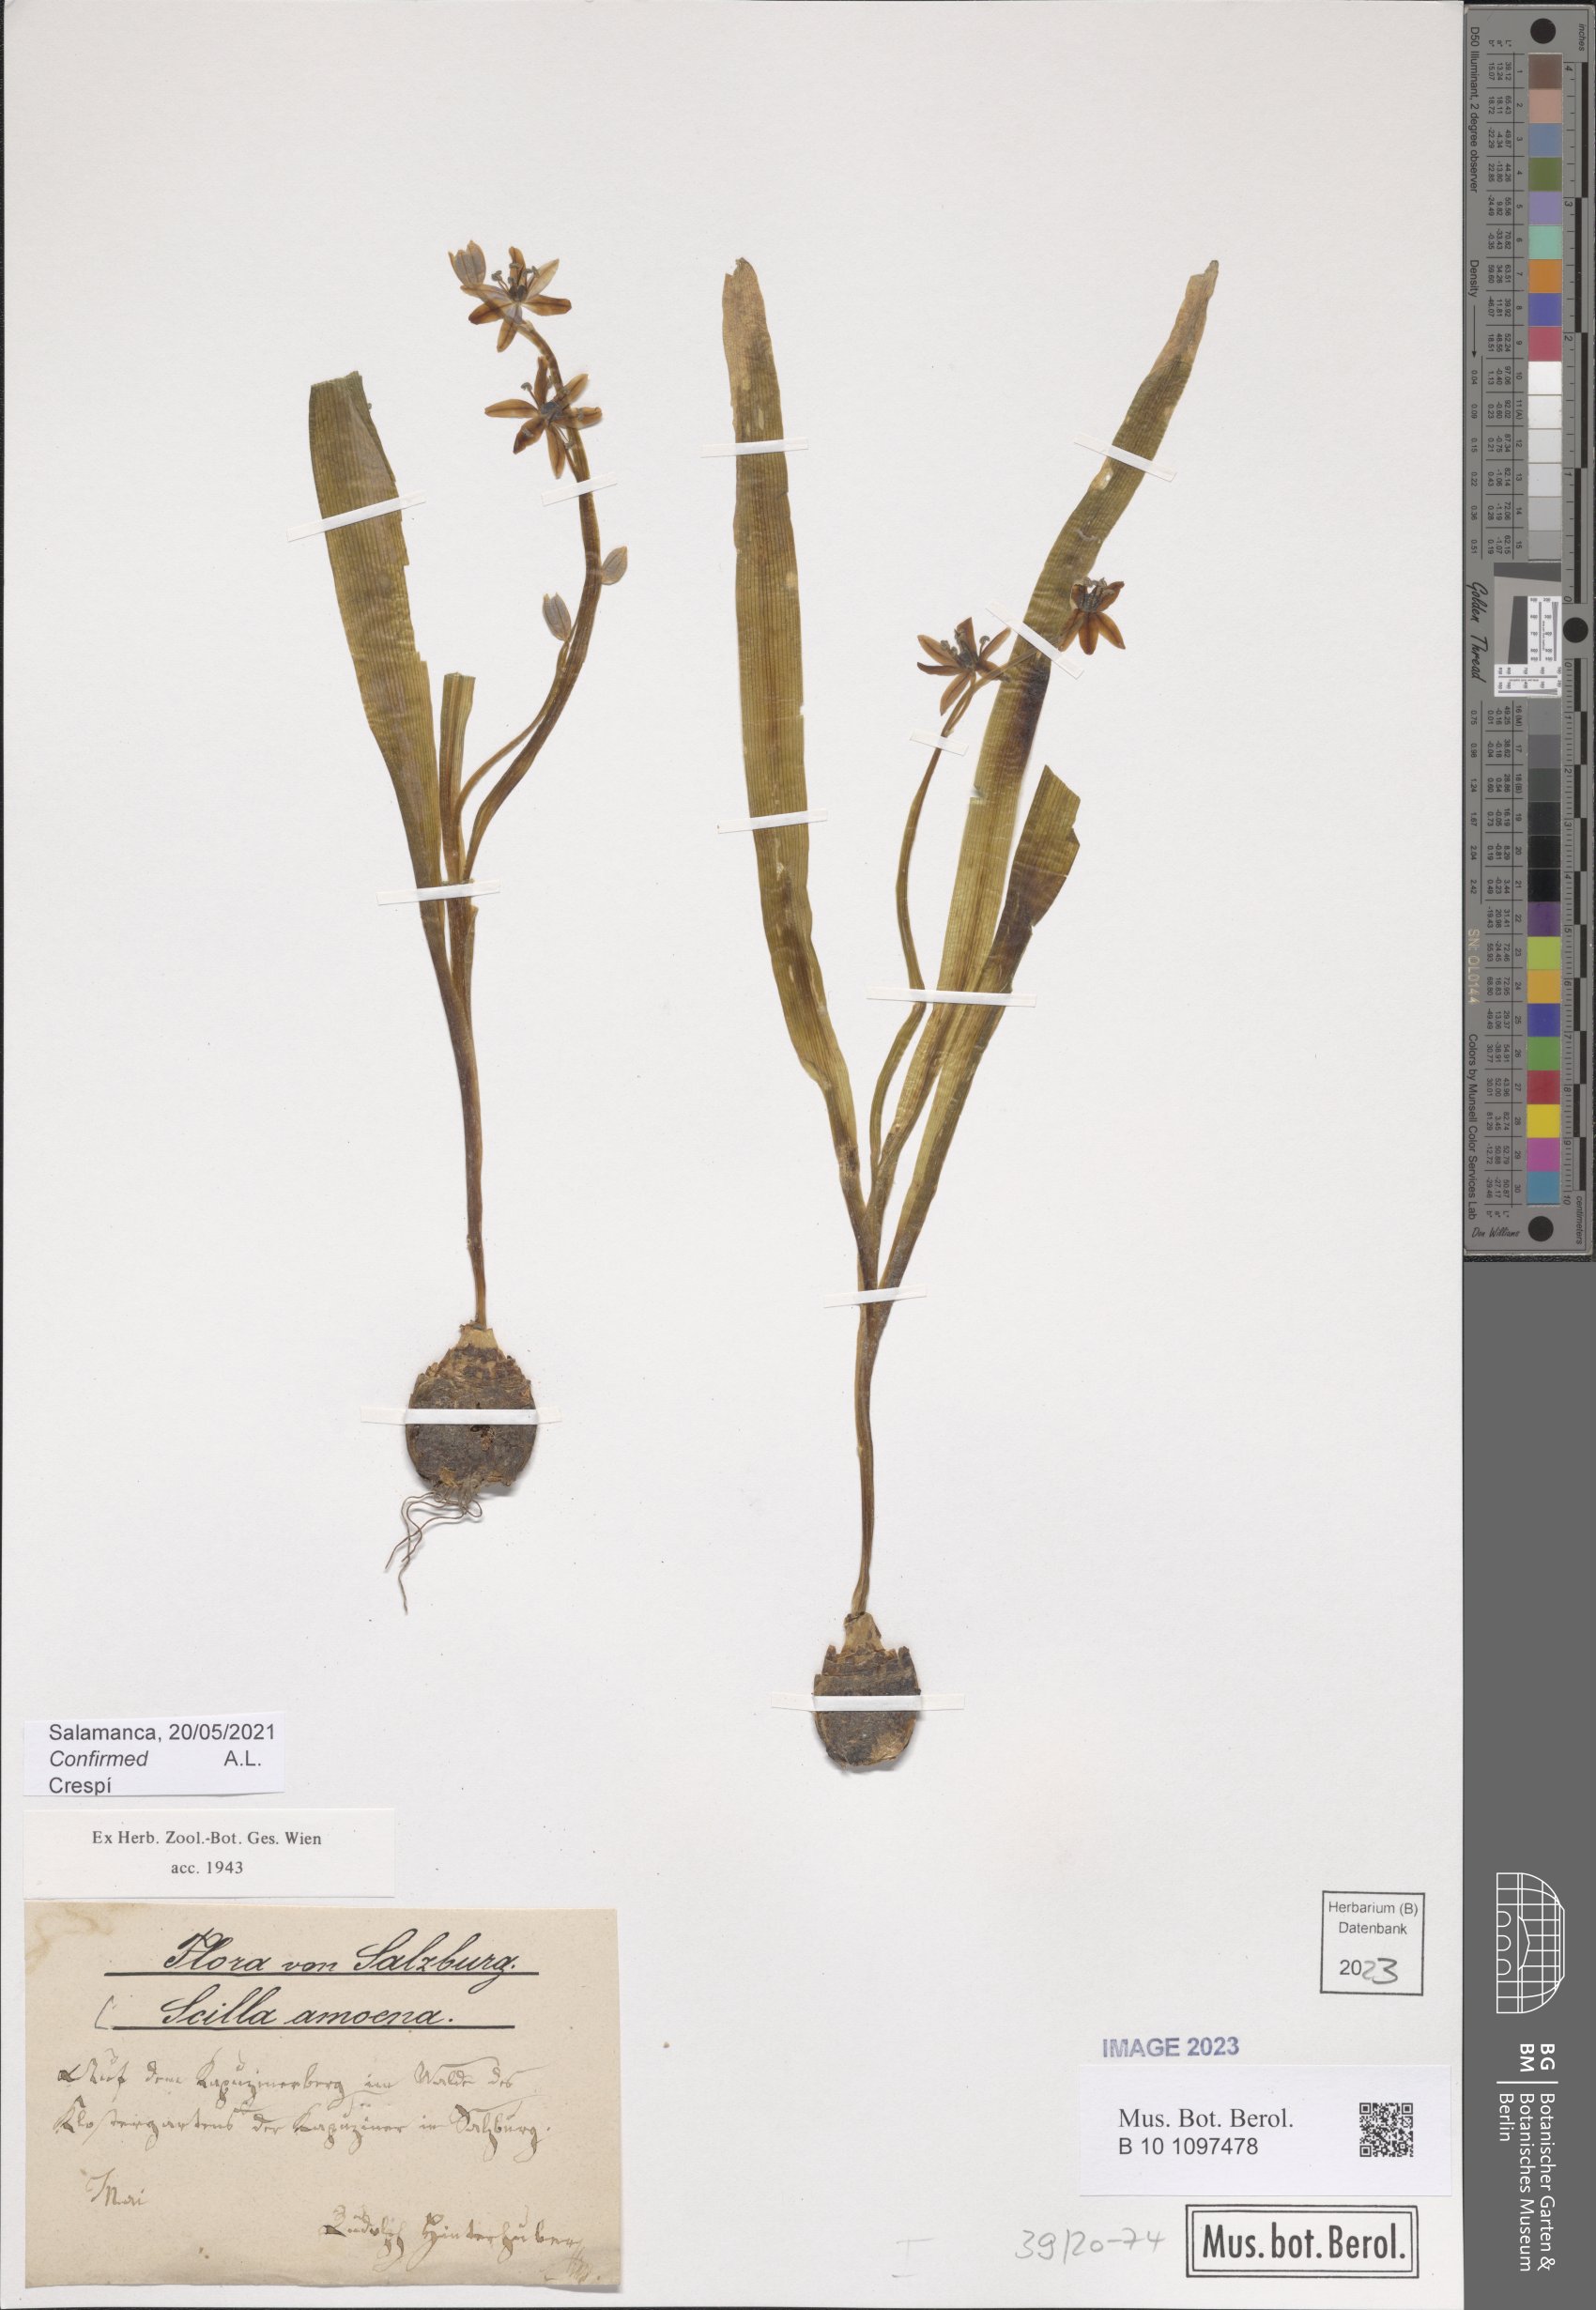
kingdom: Plantae
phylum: Tracheophyta
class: Liliopsida
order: Asparagales
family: Asparagaceae
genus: Scilla
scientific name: Scilla amoena
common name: Star-hyacinth
